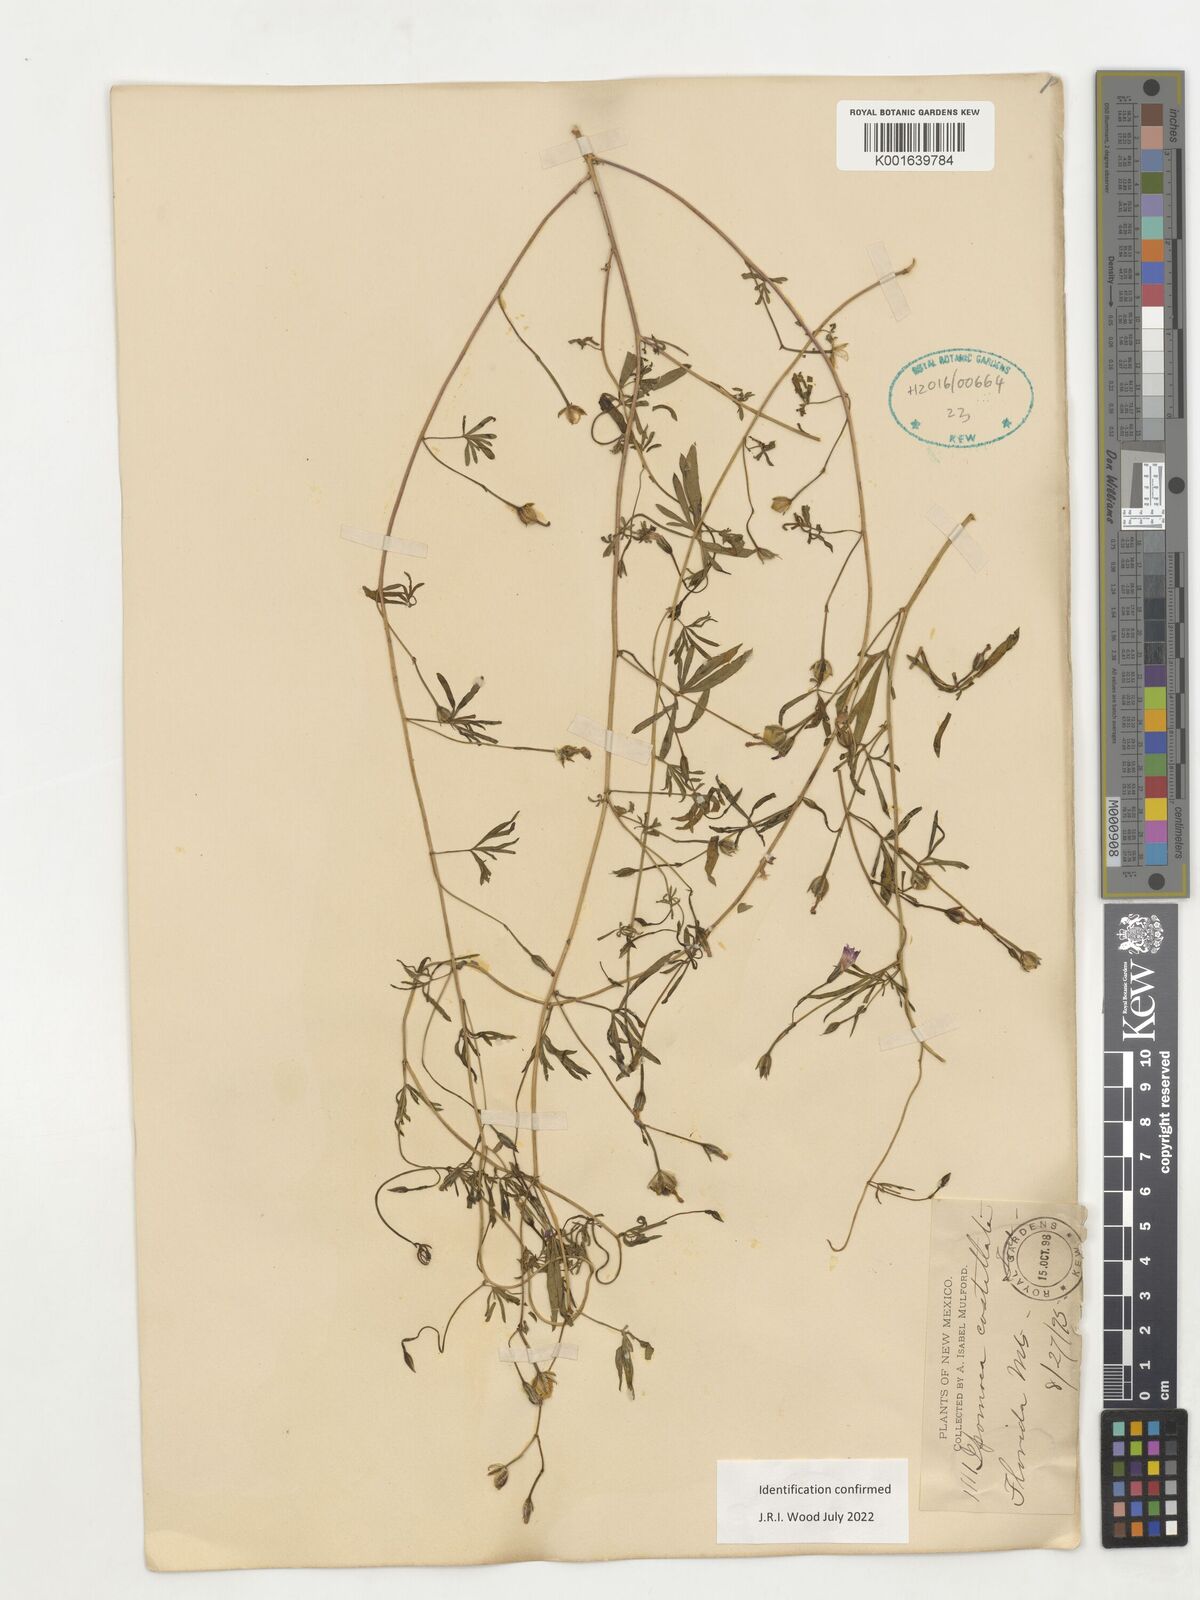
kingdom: Plantae
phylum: Tracheophyta
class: Magnoliopsida
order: Solanales
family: Convolvulaceae
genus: Ipomoea
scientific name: Ipomoea costellata
